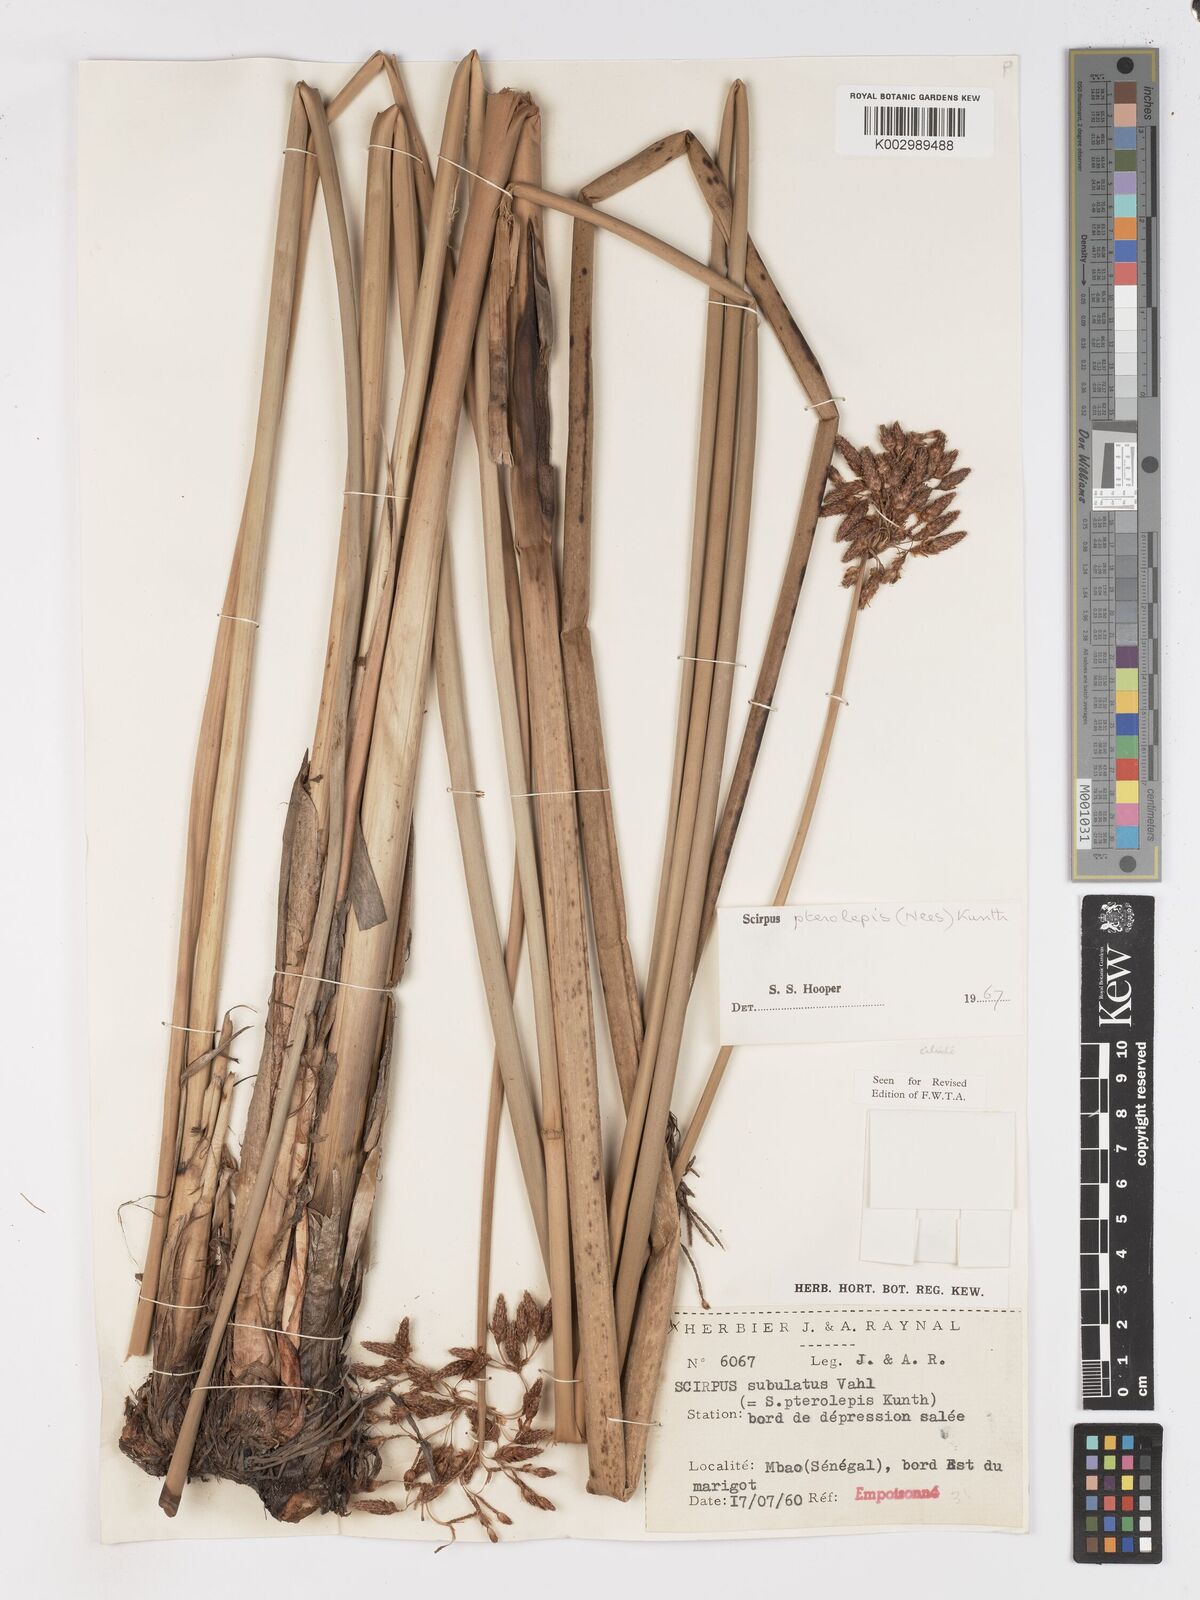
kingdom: Plantae
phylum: Tracheophyta
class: Liliopsida
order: Poales
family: Cyperaceae
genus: Schoenoplectus
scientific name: Schoenoplectus subulatus
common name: Coast club-rush
